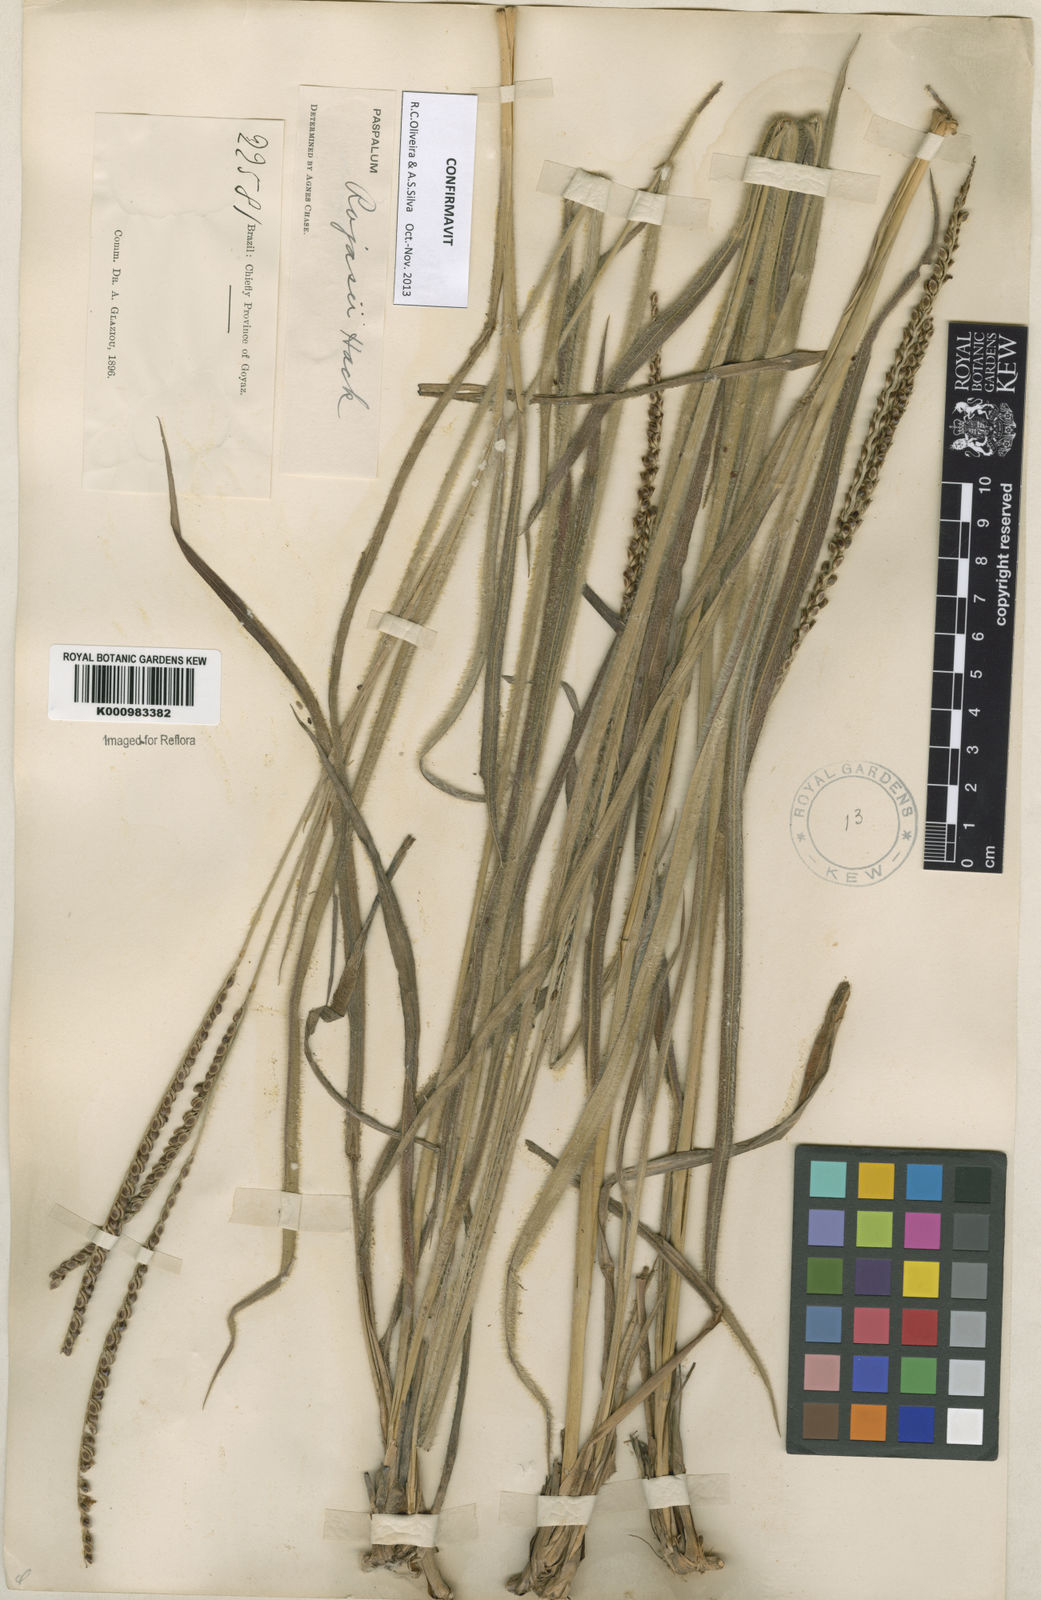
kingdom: Plantae
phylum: Tracheophyta
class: Liliopsida
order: Poales
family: Poaceae
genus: Paspalum
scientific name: Paspalum guenoarum
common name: Wintergreen paspalum
